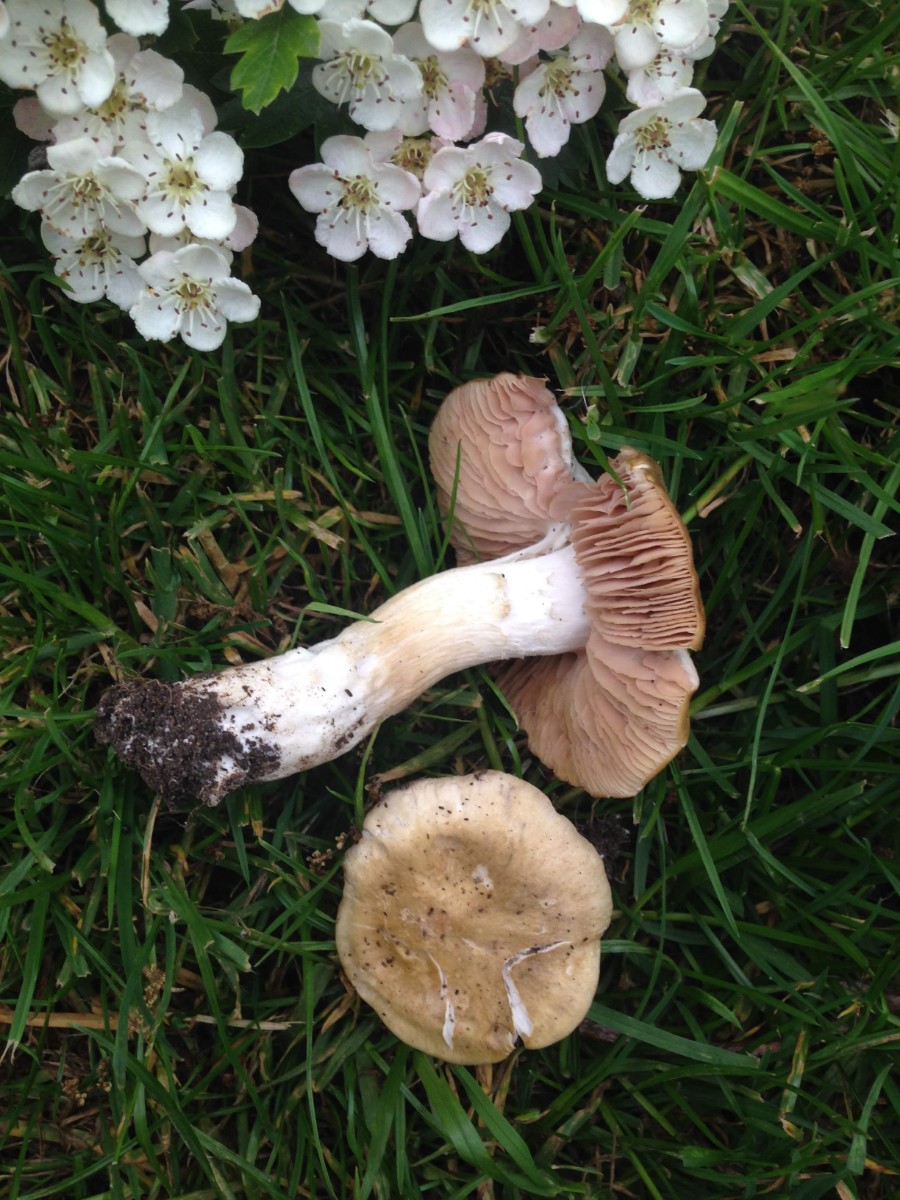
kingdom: Fungi
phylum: Basidiomycota
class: Agaricomycetes
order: Agaricales
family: Entolomataceae
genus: Entoloma
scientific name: Entoloma clypeatum
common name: flammet rødblad
